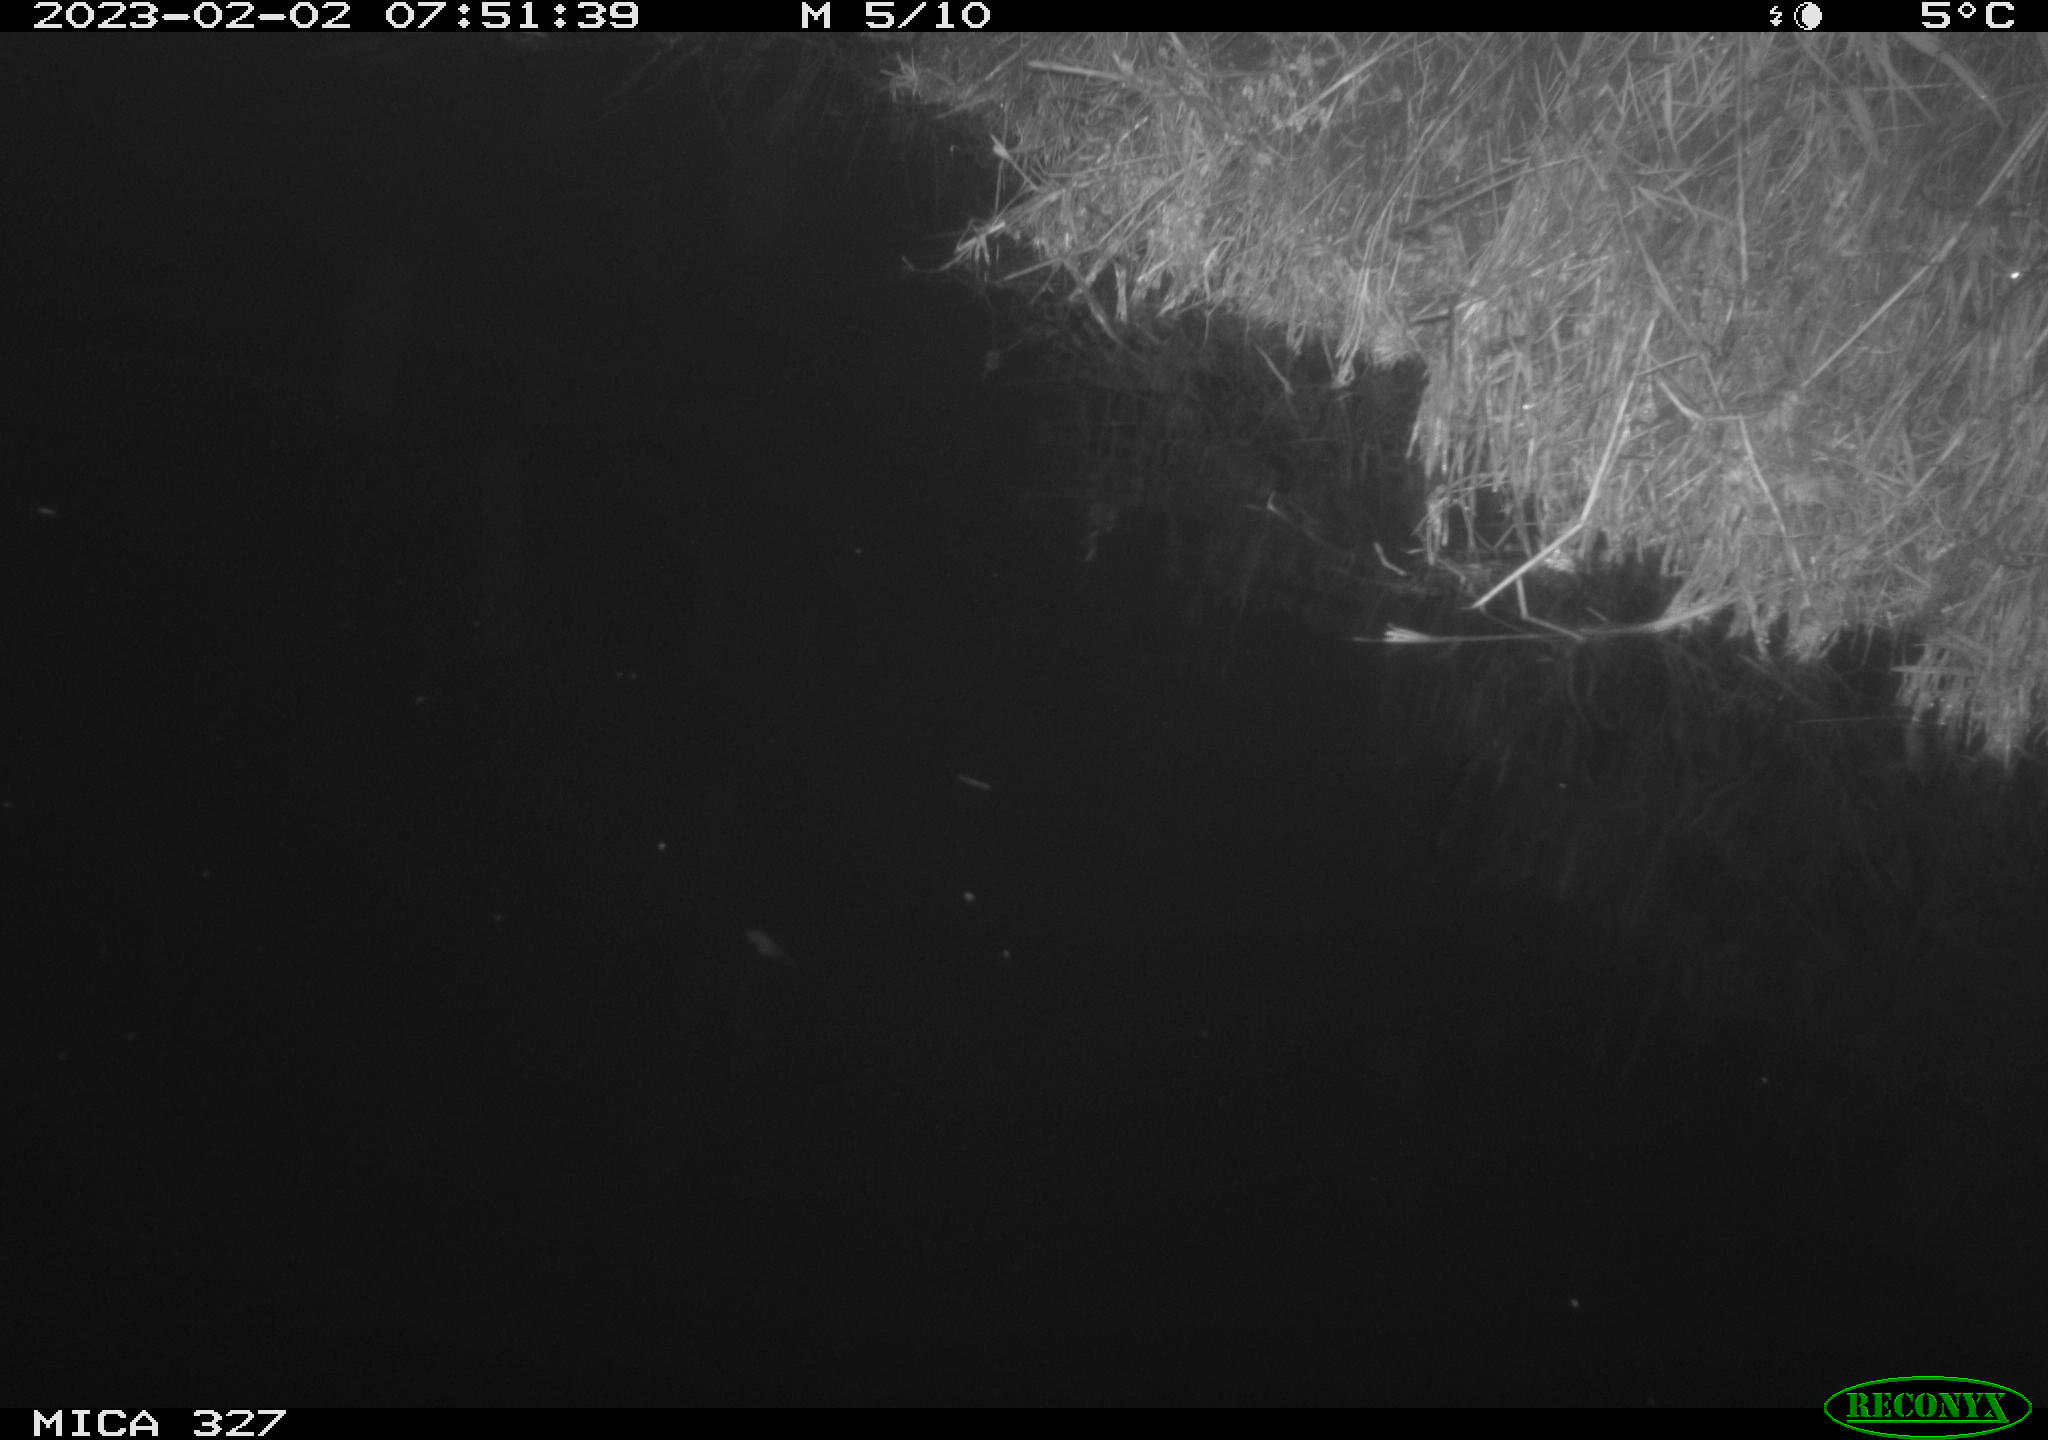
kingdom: Animalia
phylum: Chordata
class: Aves
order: Gruiformes
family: Rallidae
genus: Gallinula
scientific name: Gallinula chloropus
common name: Common moorhen
